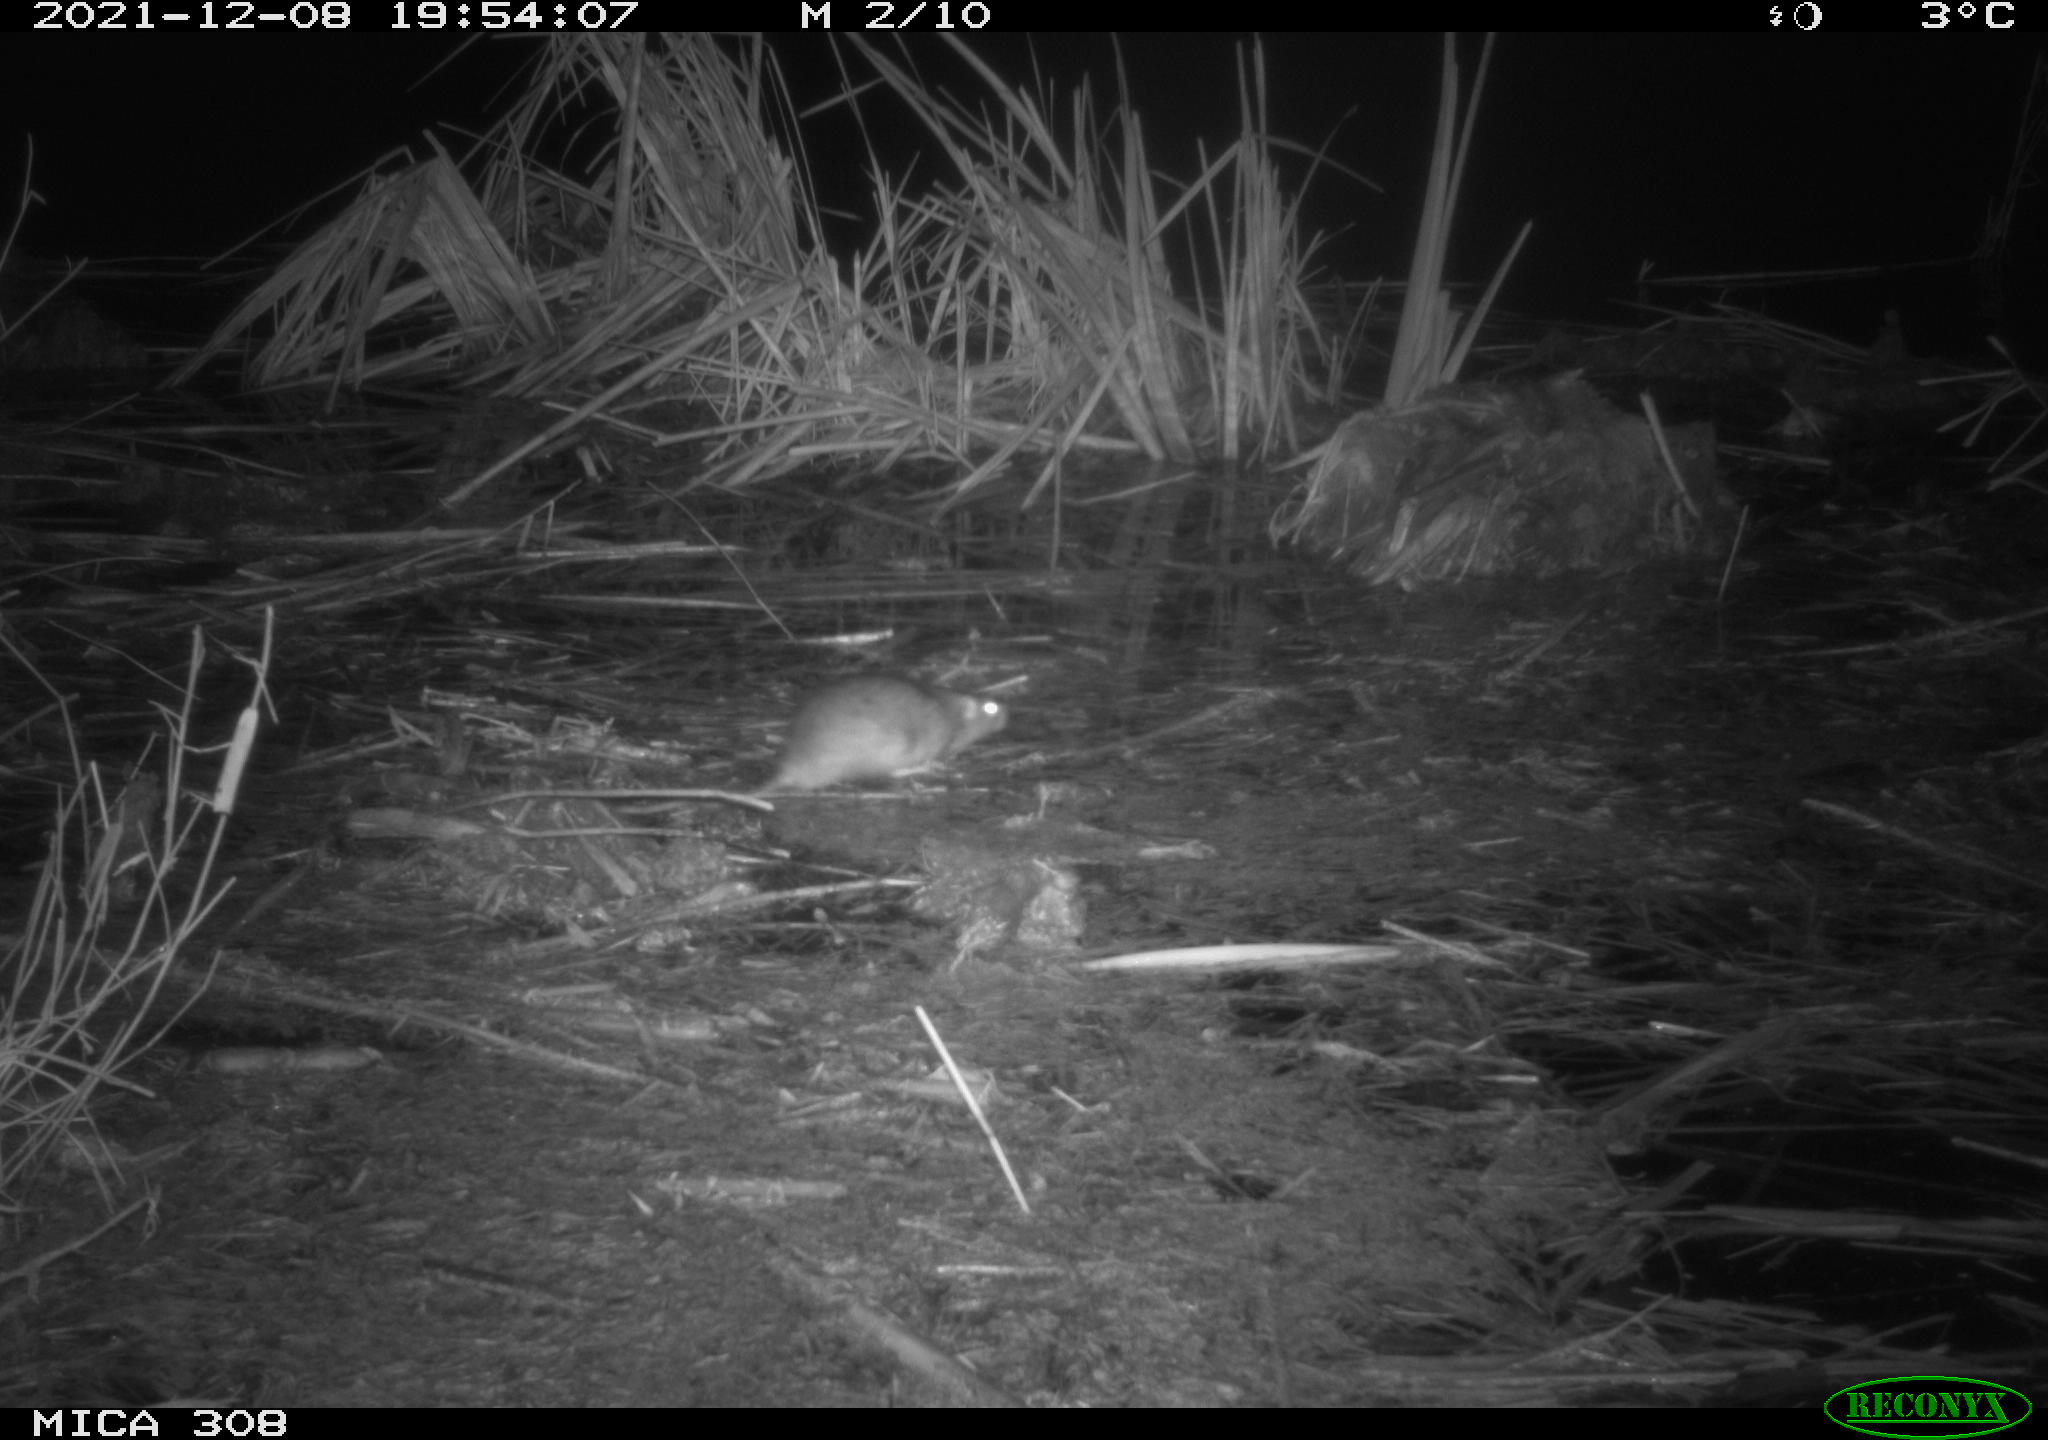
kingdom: Animalia
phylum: Chordata
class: Mammalia
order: Rodentia
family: Muridae
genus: Rattus
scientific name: Rattus norvegicus
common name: Brown rat
